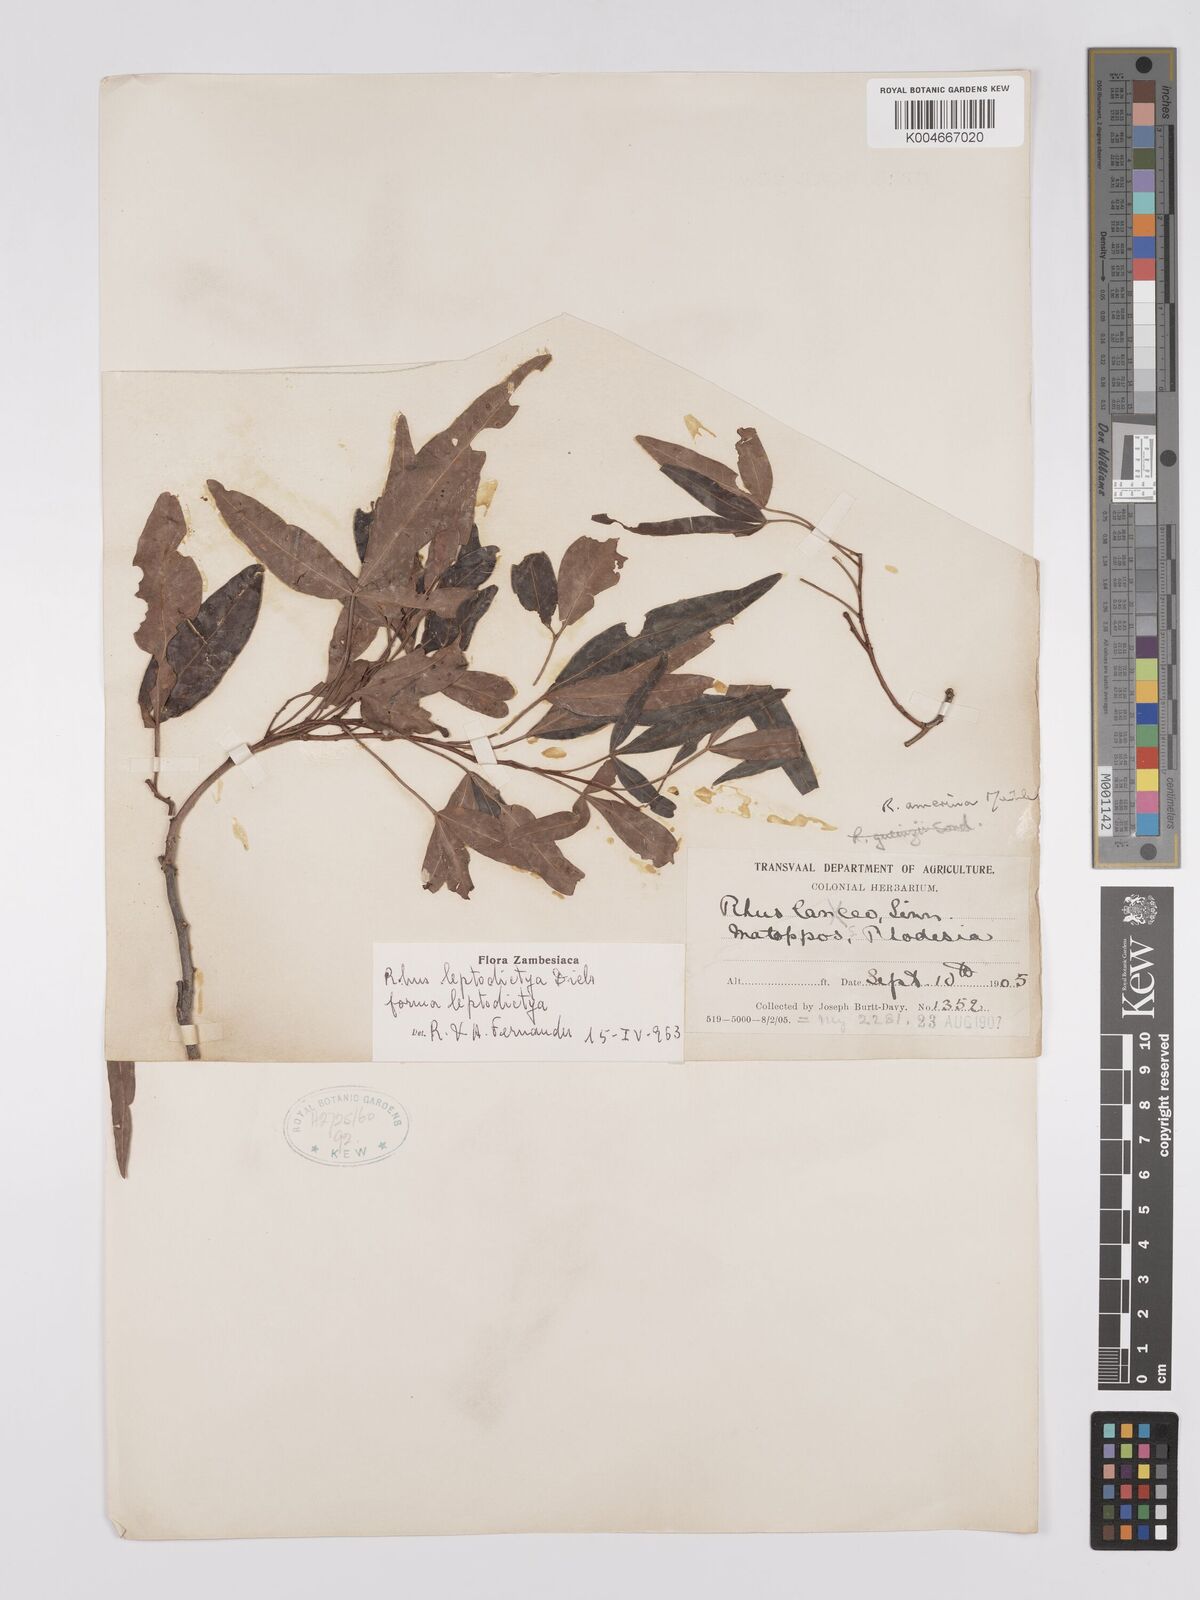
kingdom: Plantae
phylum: Tracheophyta
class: Magnoliopsida
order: Sapindales
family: Anacardiaceae
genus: Searsia
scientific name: Searsia leptodictya
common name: Mountain karee
